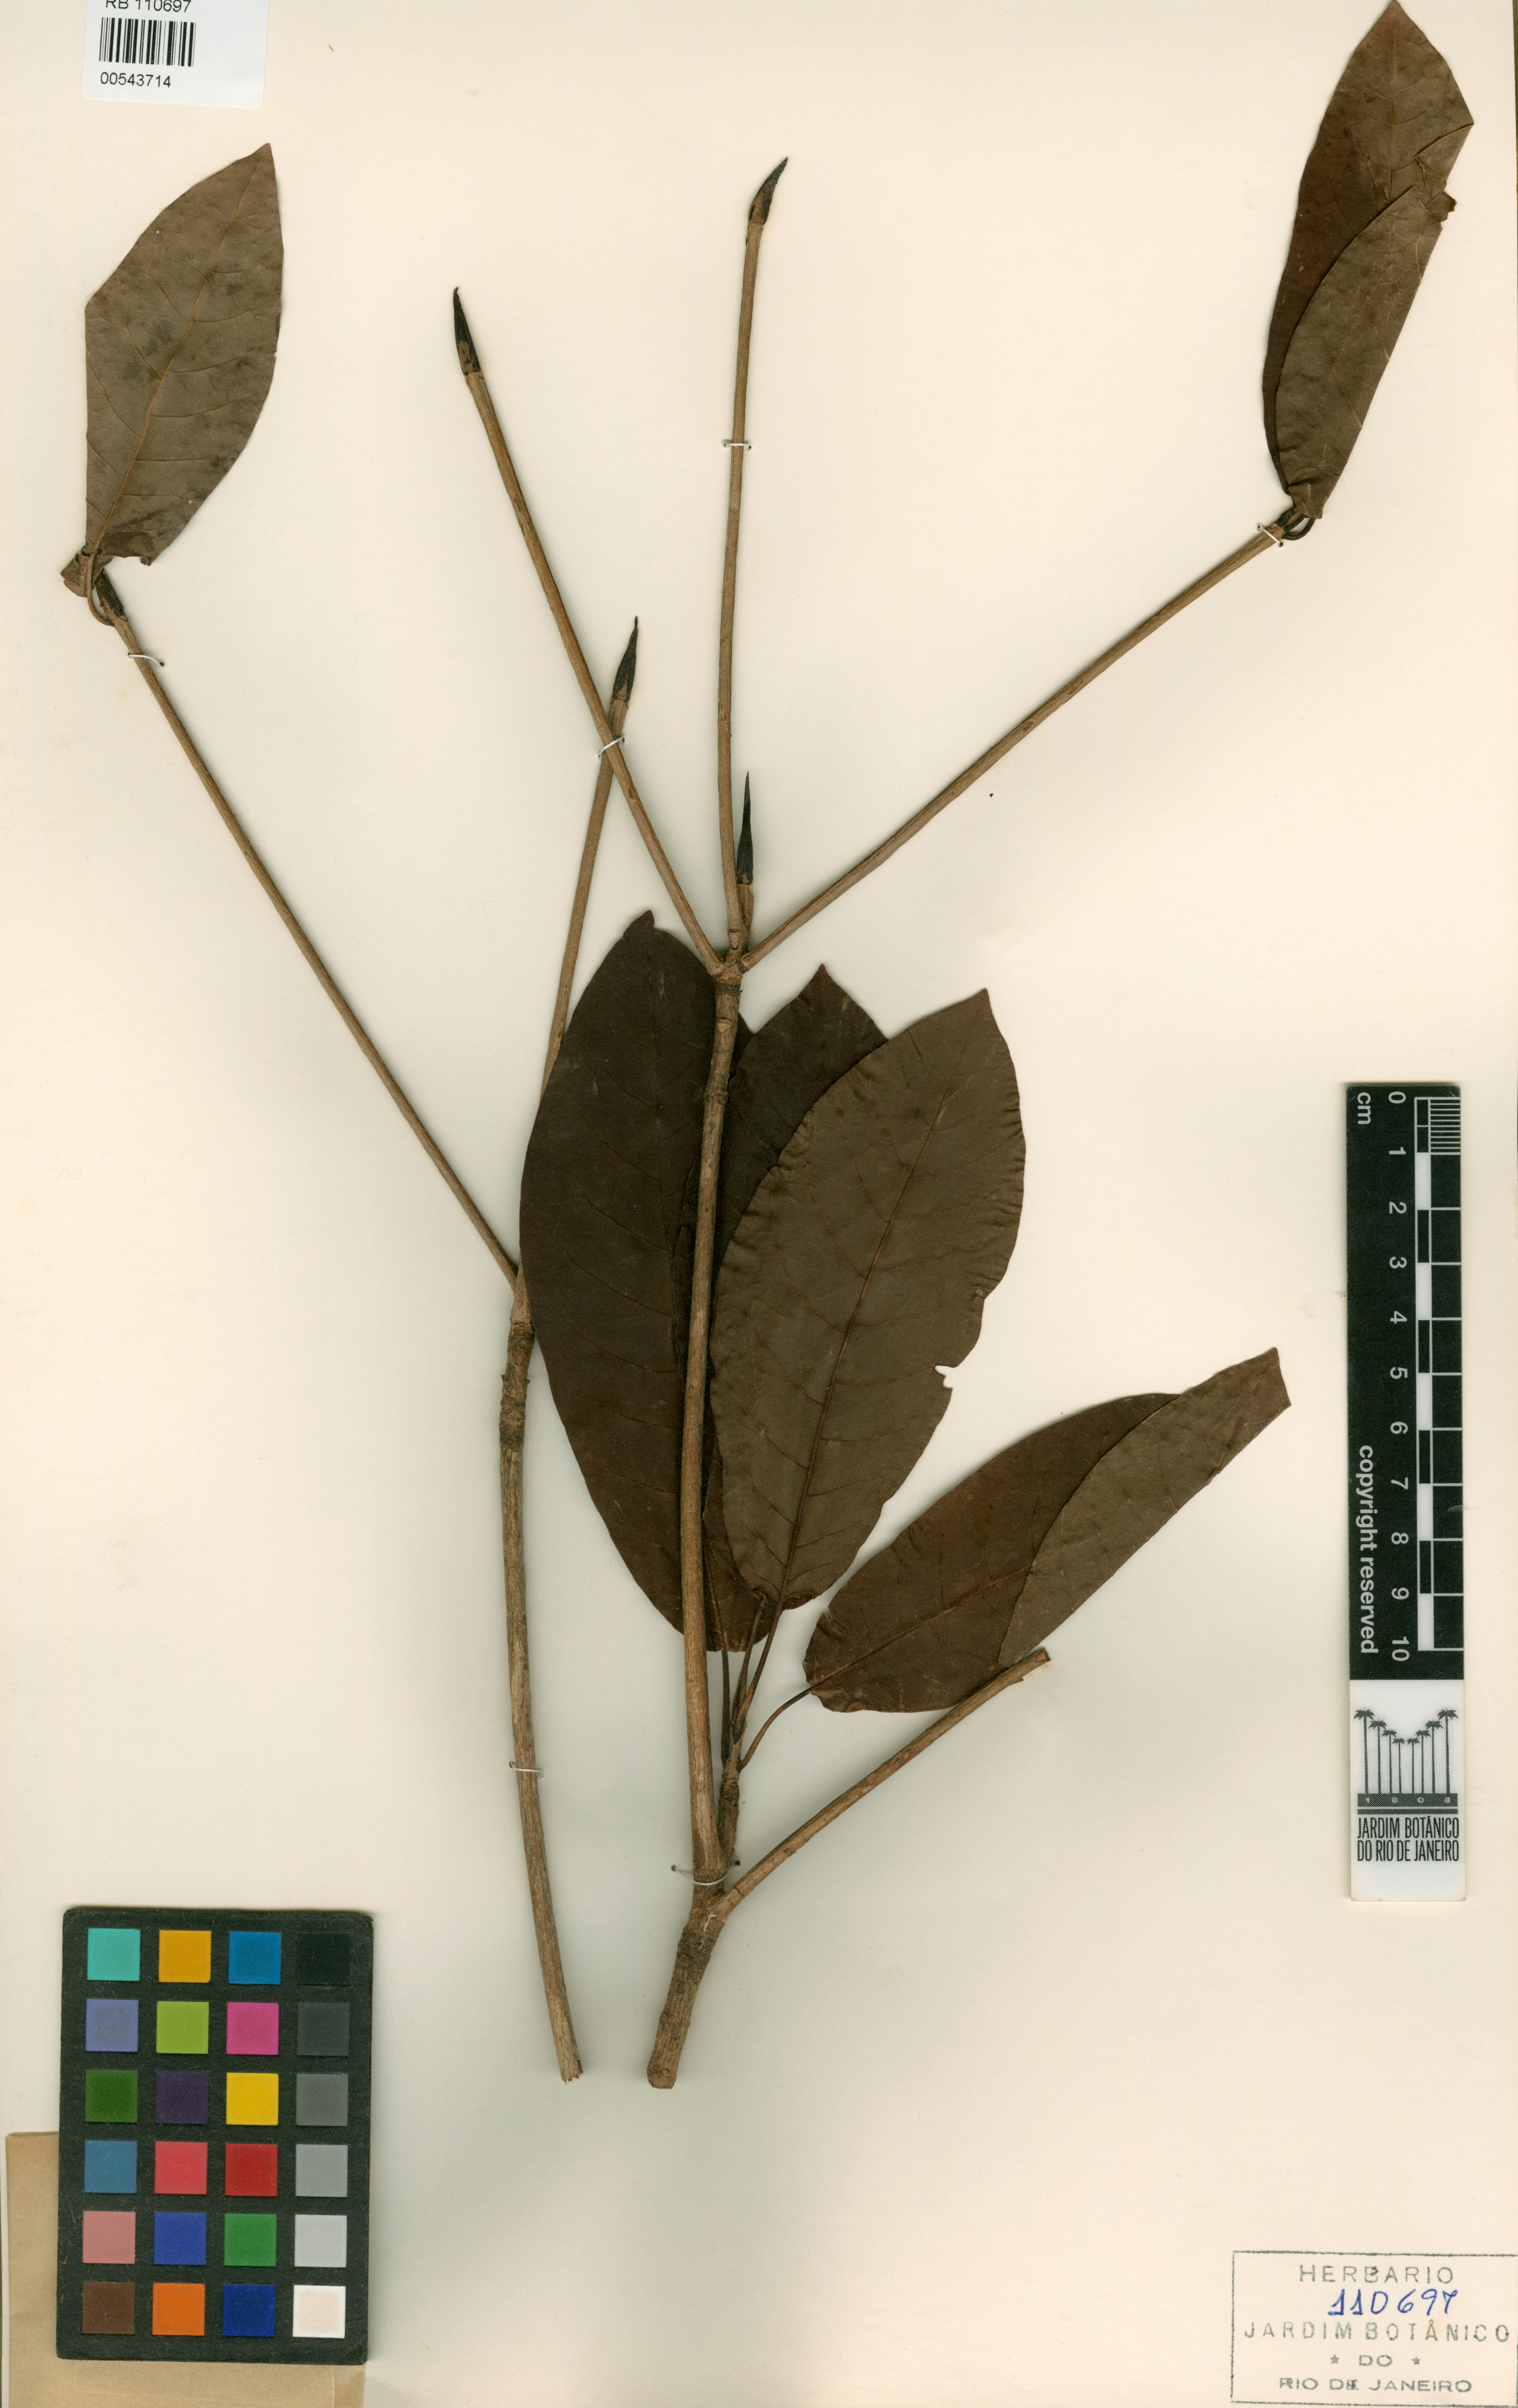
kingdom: Plantae
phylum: Tracheophyta
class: Magnoliopsida
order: Gentianales
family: Rubiaceae
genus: Simira
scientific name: Simira grazielae
